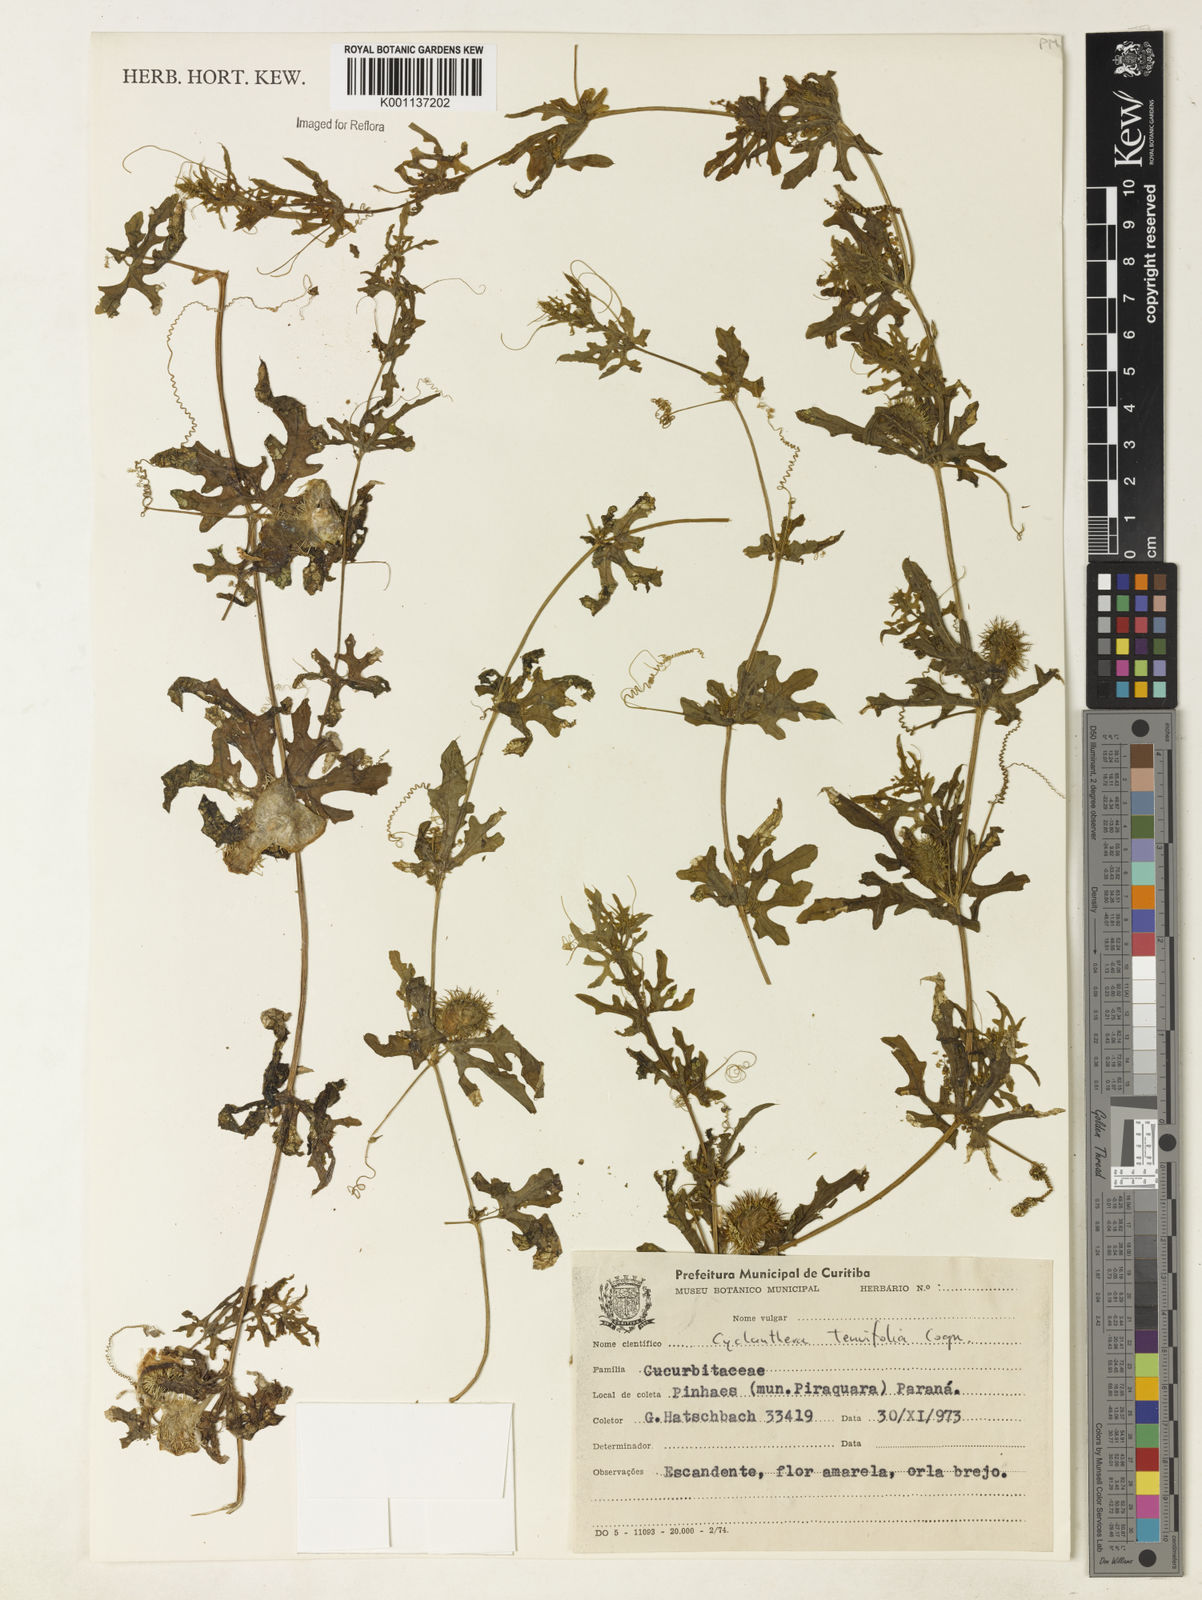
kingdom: Plantae
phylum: Tracheophyta
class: Magnoliopsida
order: Cucurbitales
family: Cucurbitaceae
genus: Cyclanthera
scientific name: Cyclanthera tenuifolia
